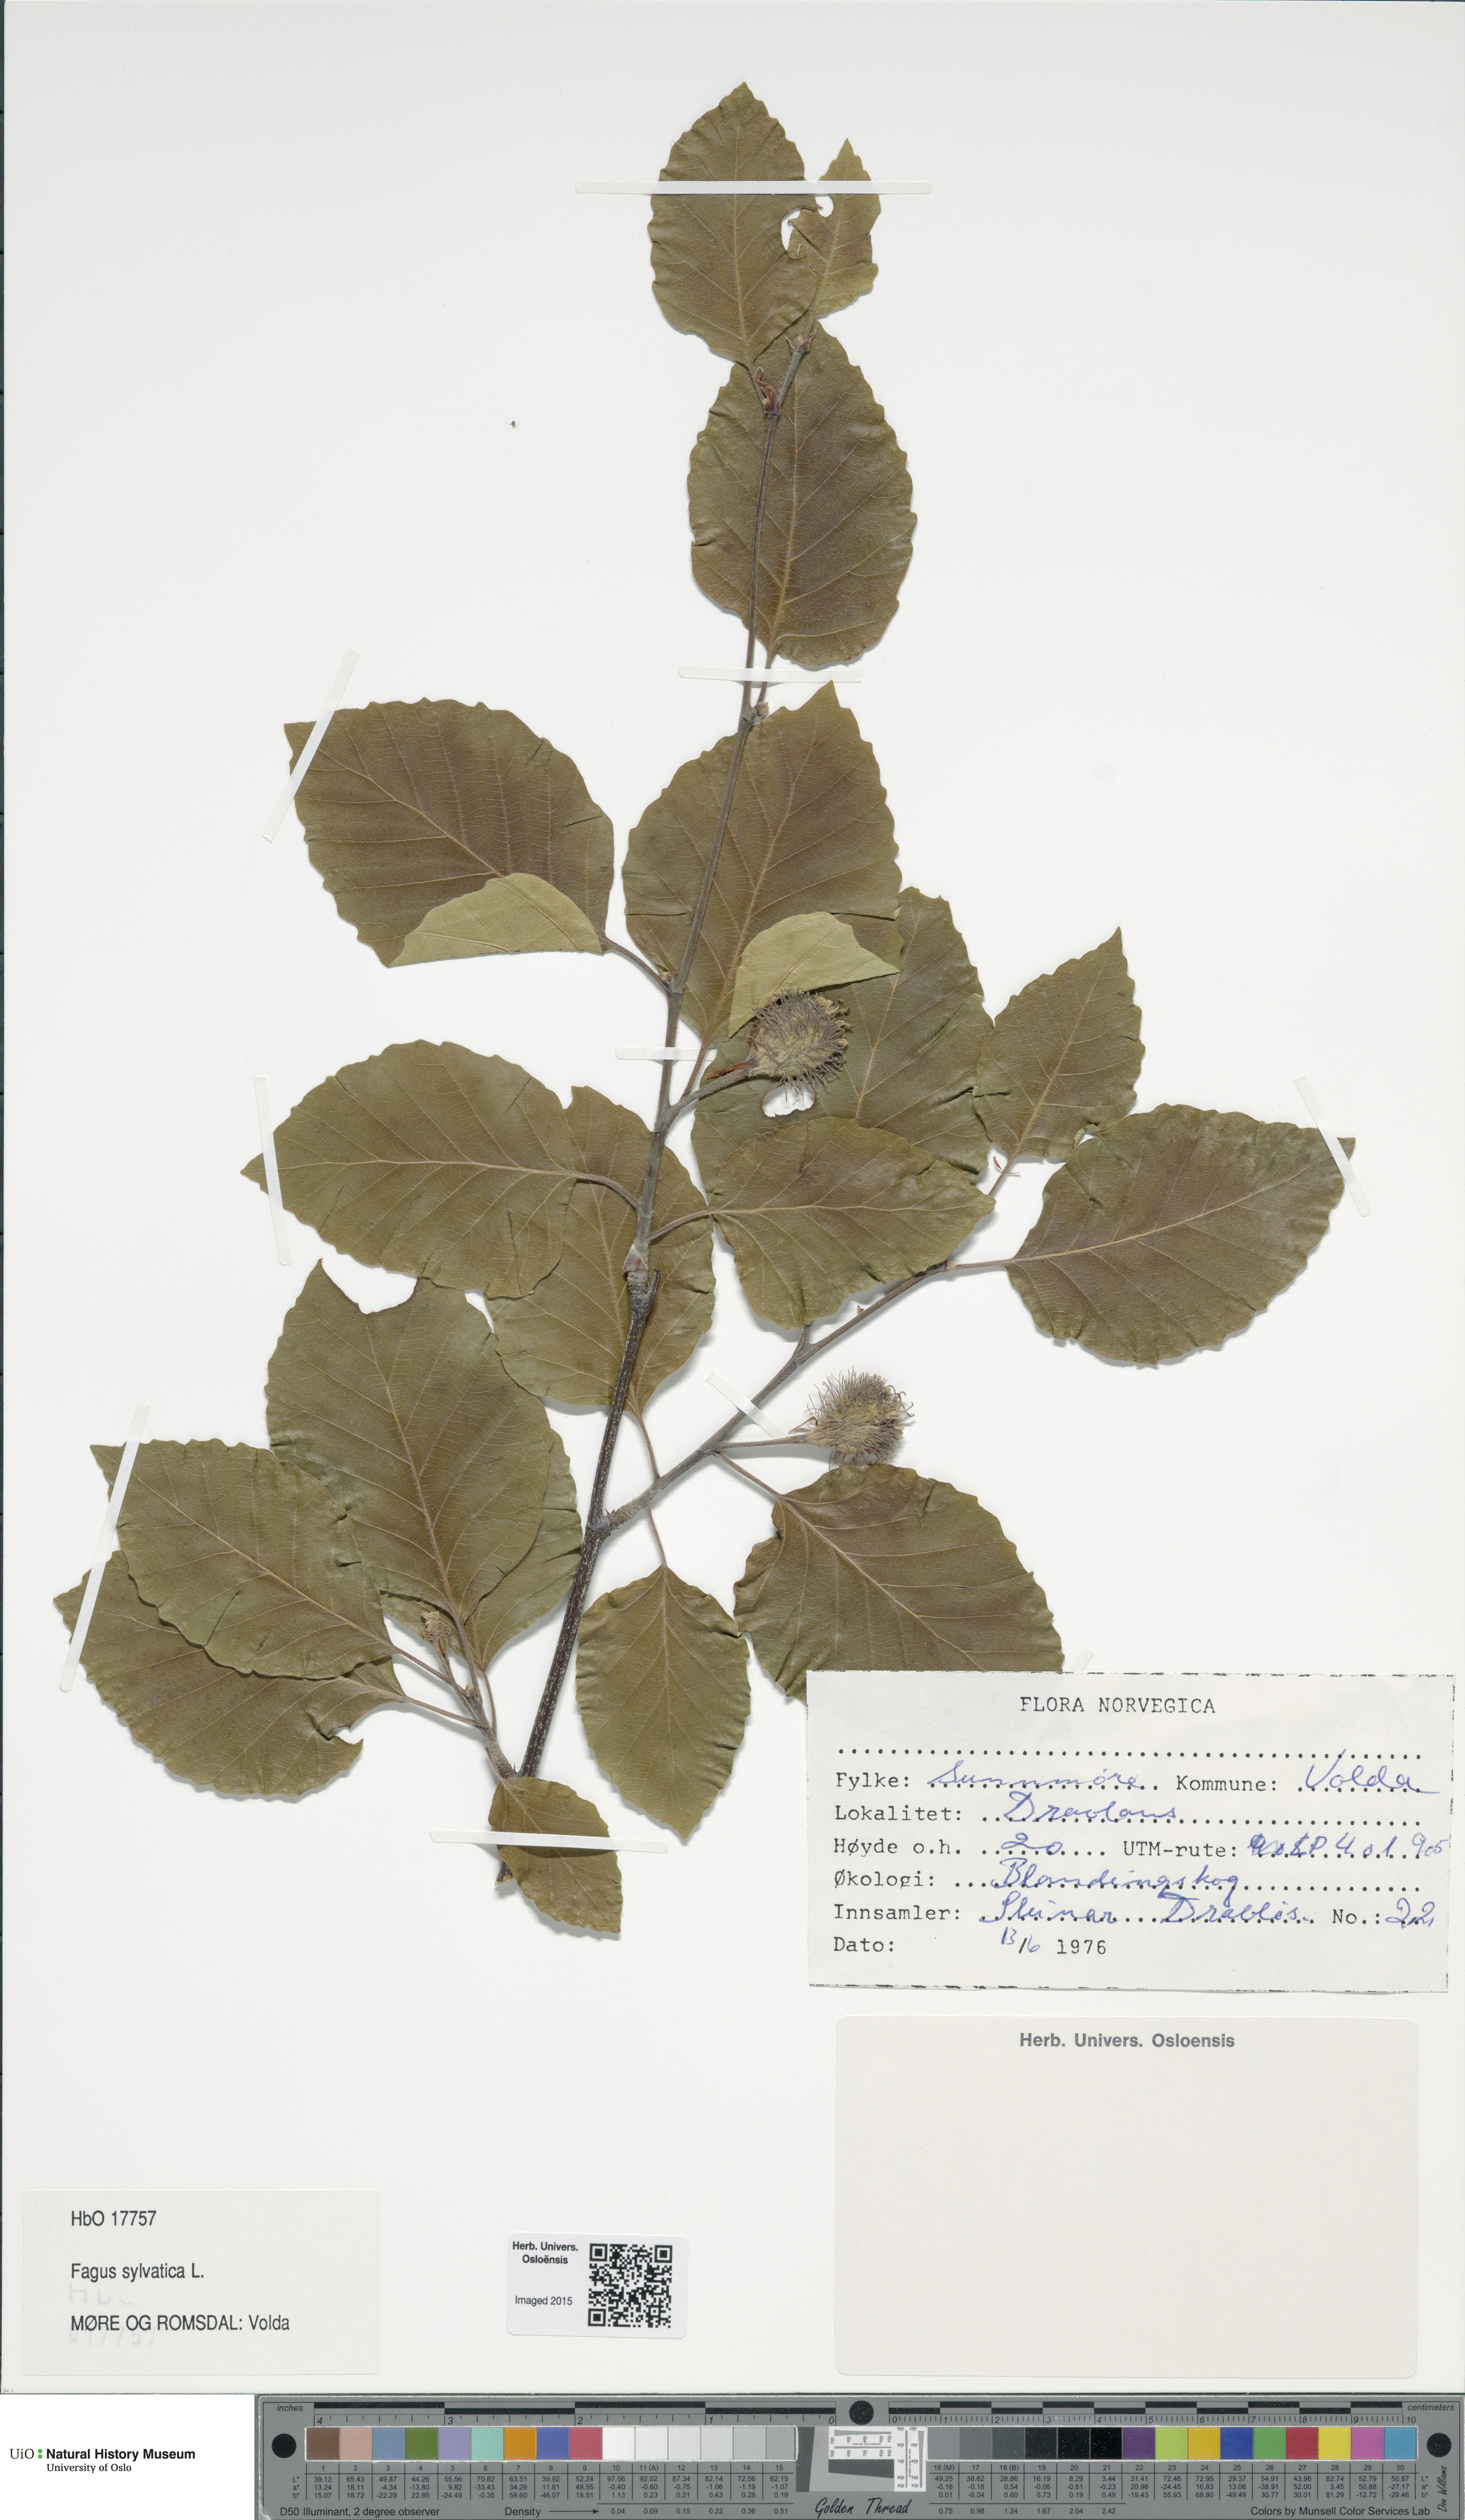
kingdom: Plantae
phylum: Tracheophyta
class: Magnoliopsida
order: Fagales
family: Fagaceae
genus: Fagus
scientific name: Fagus sylvatica
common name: Beech
